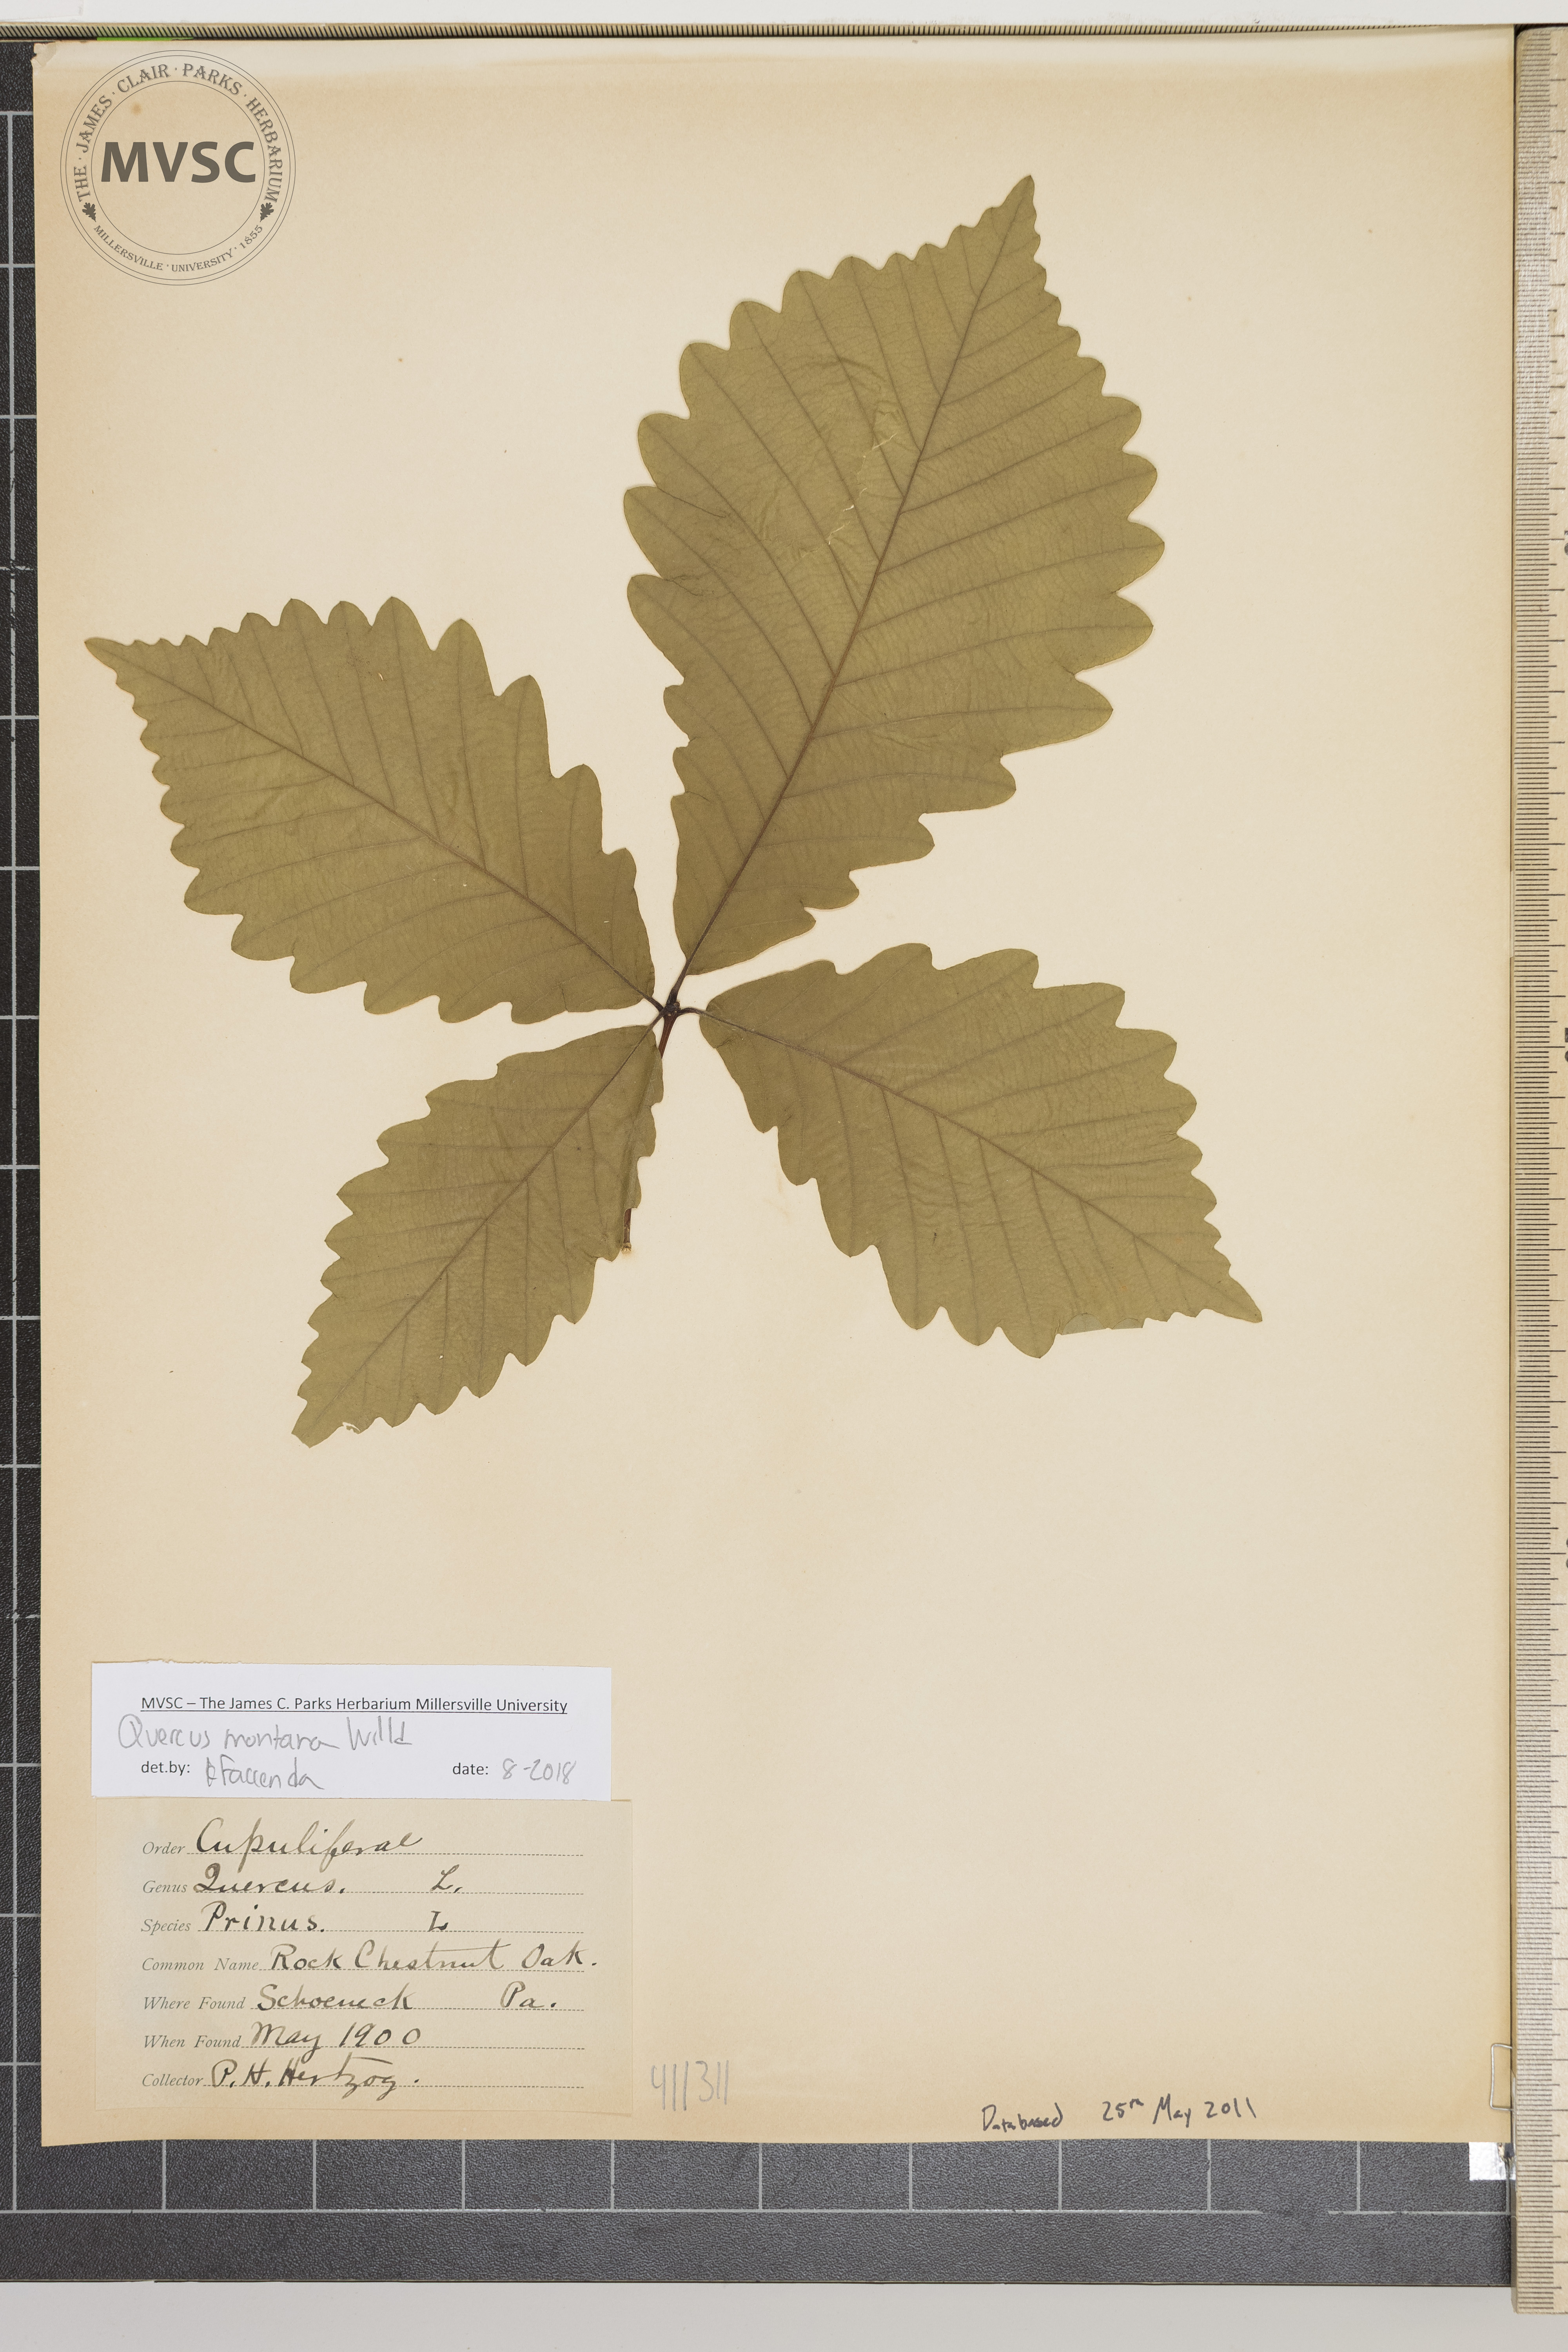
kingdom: Plantae
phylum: Tracheophyta
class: Magnoliopsida
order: Fagales
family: Fagaceae
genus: Quercus
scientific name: Quercus montana
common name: Chestnut oak
